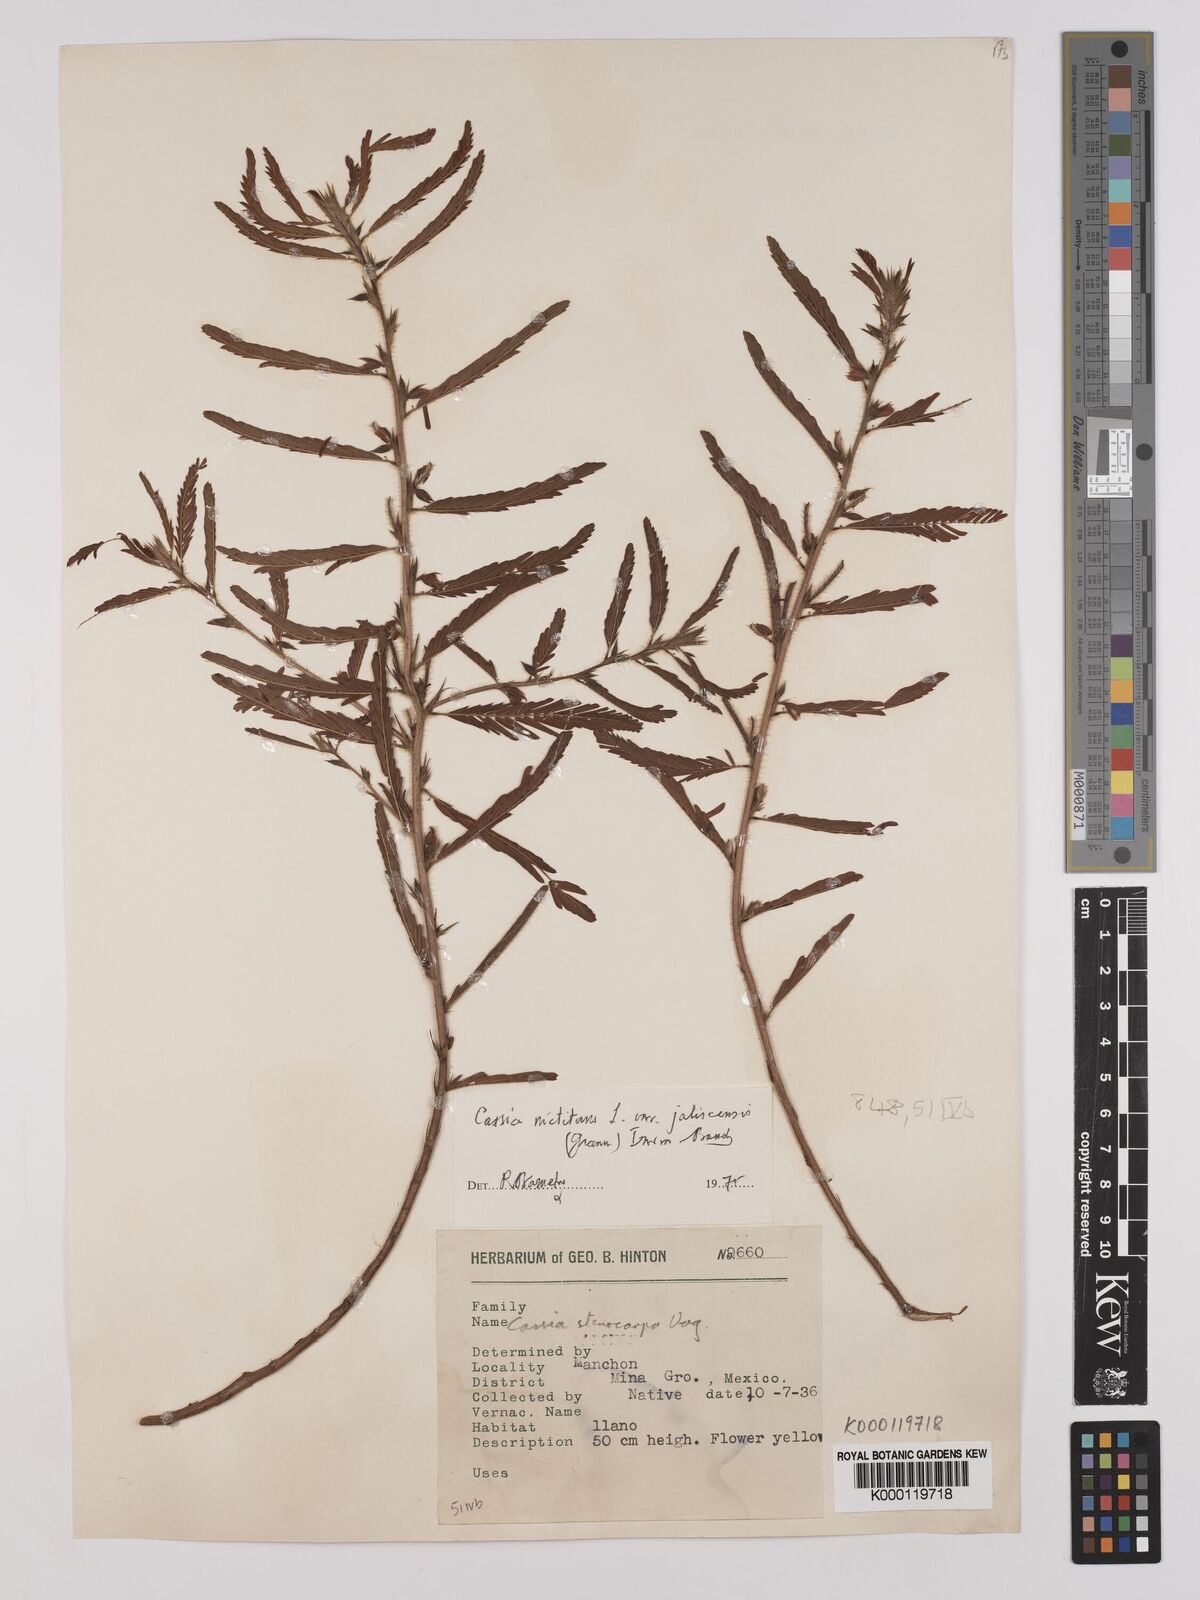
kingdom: Plantae
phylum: Tracheophyta
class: Magnoliopsida
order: Fabales
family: Fabaceae
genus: Chamaecrista
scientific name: Chamaecrista nictitans
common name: Sensitive cassia
